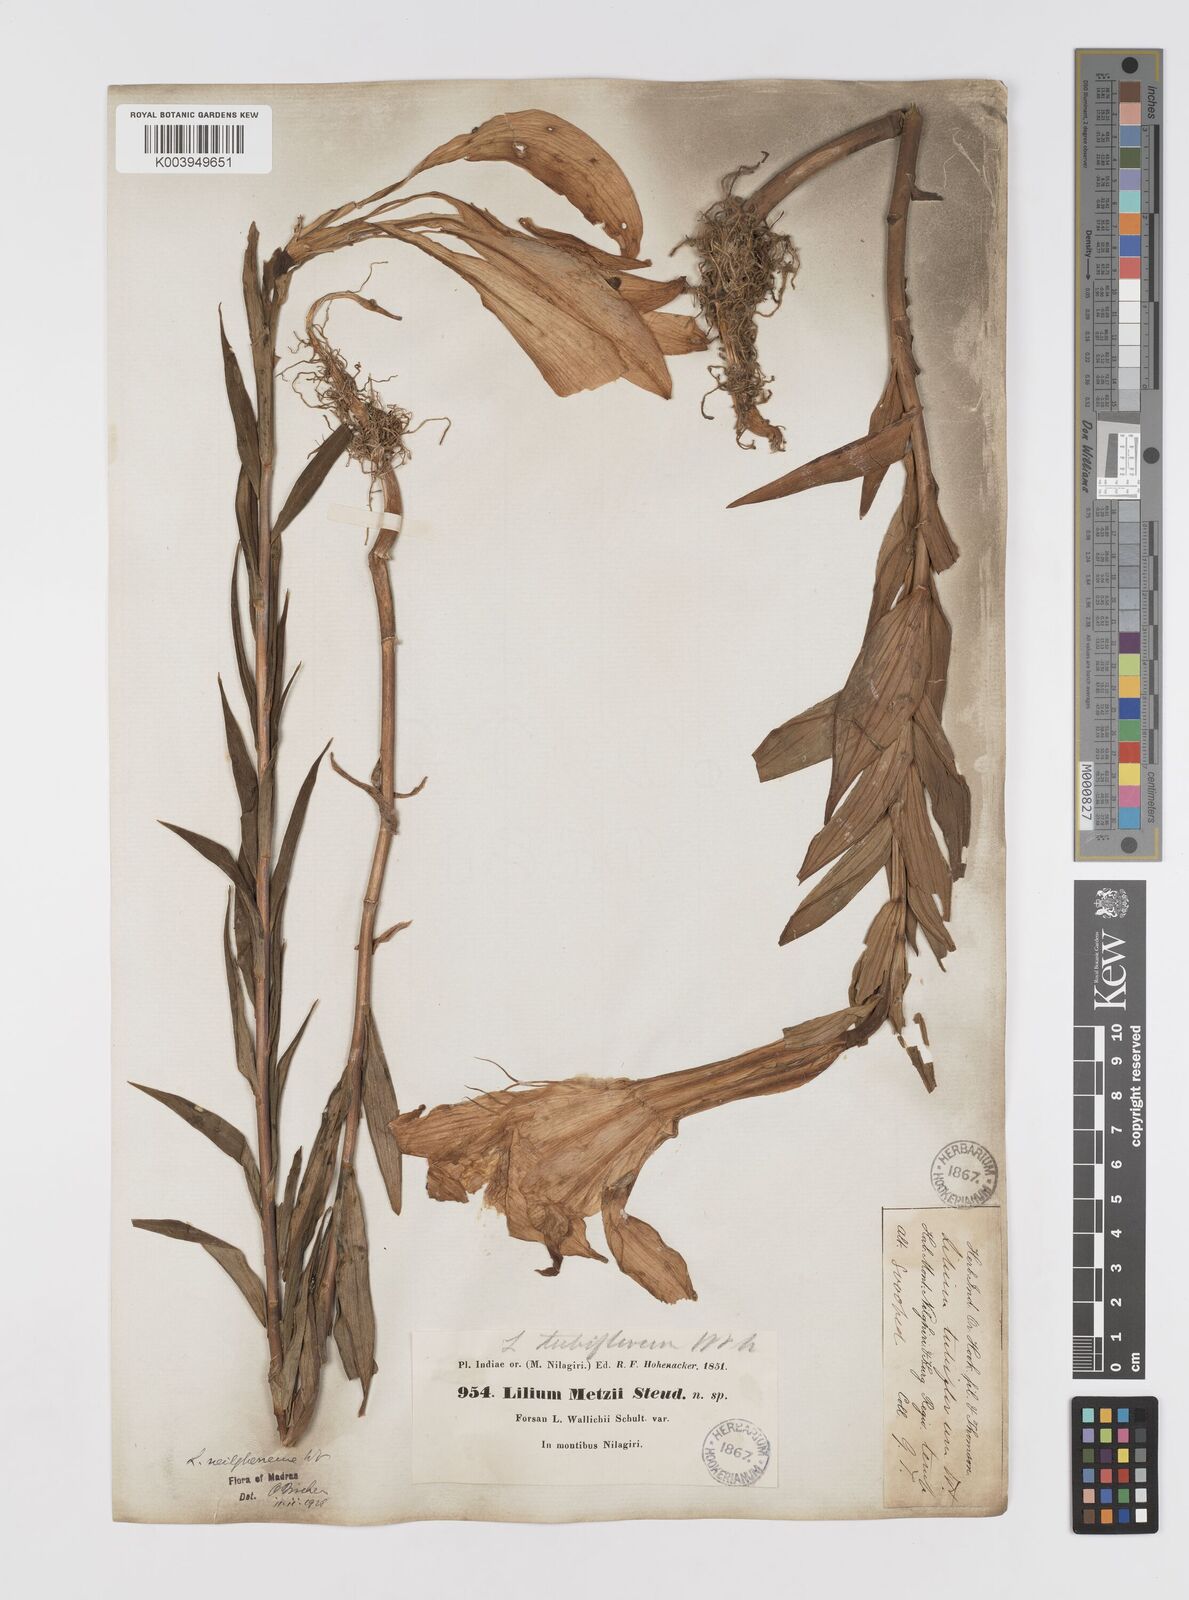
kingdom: Plantae
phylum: Tracheophyta
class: Liliopsida
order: Liliales
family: Liliaceae
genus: Lilium
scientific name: Lilium wallichianum
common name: Wallich's lily
